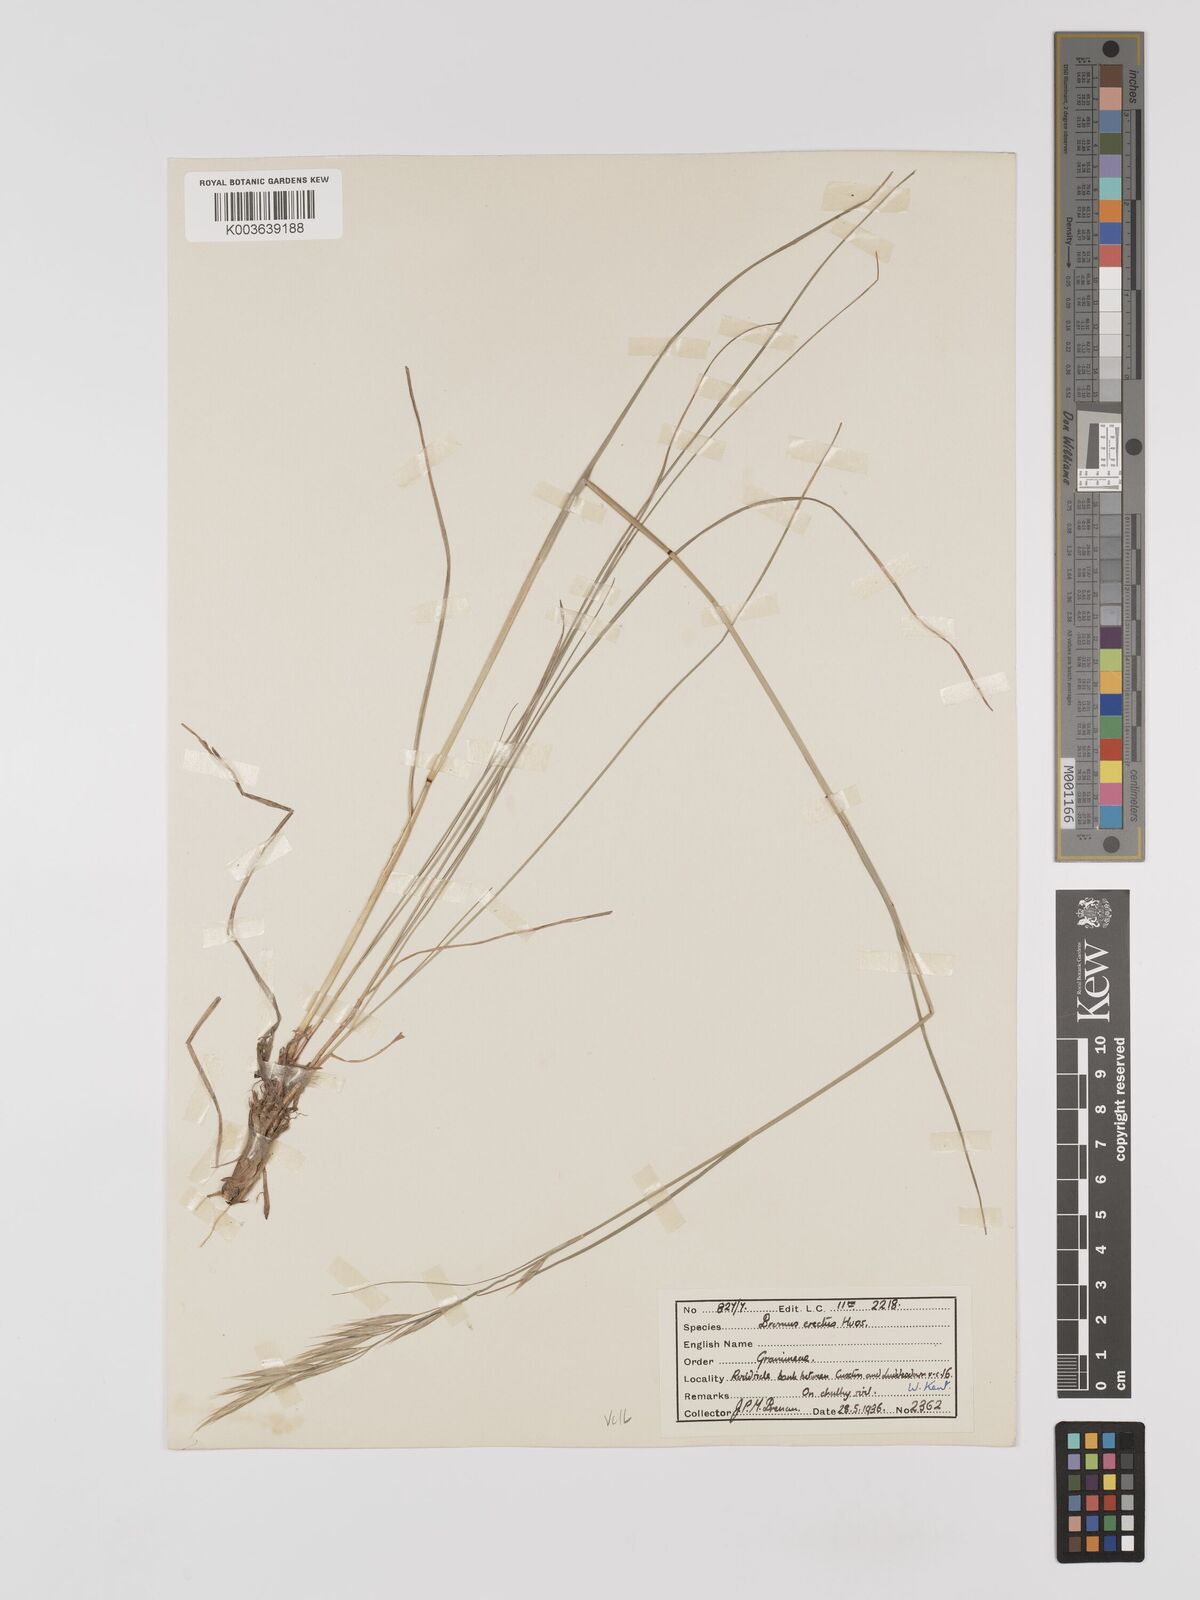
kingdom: Plantae
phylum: Tracheophyta
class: Liliopsida
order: Poales
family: Poaceae
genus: Bromus
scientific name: Bromus erectus
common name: Erect brome
